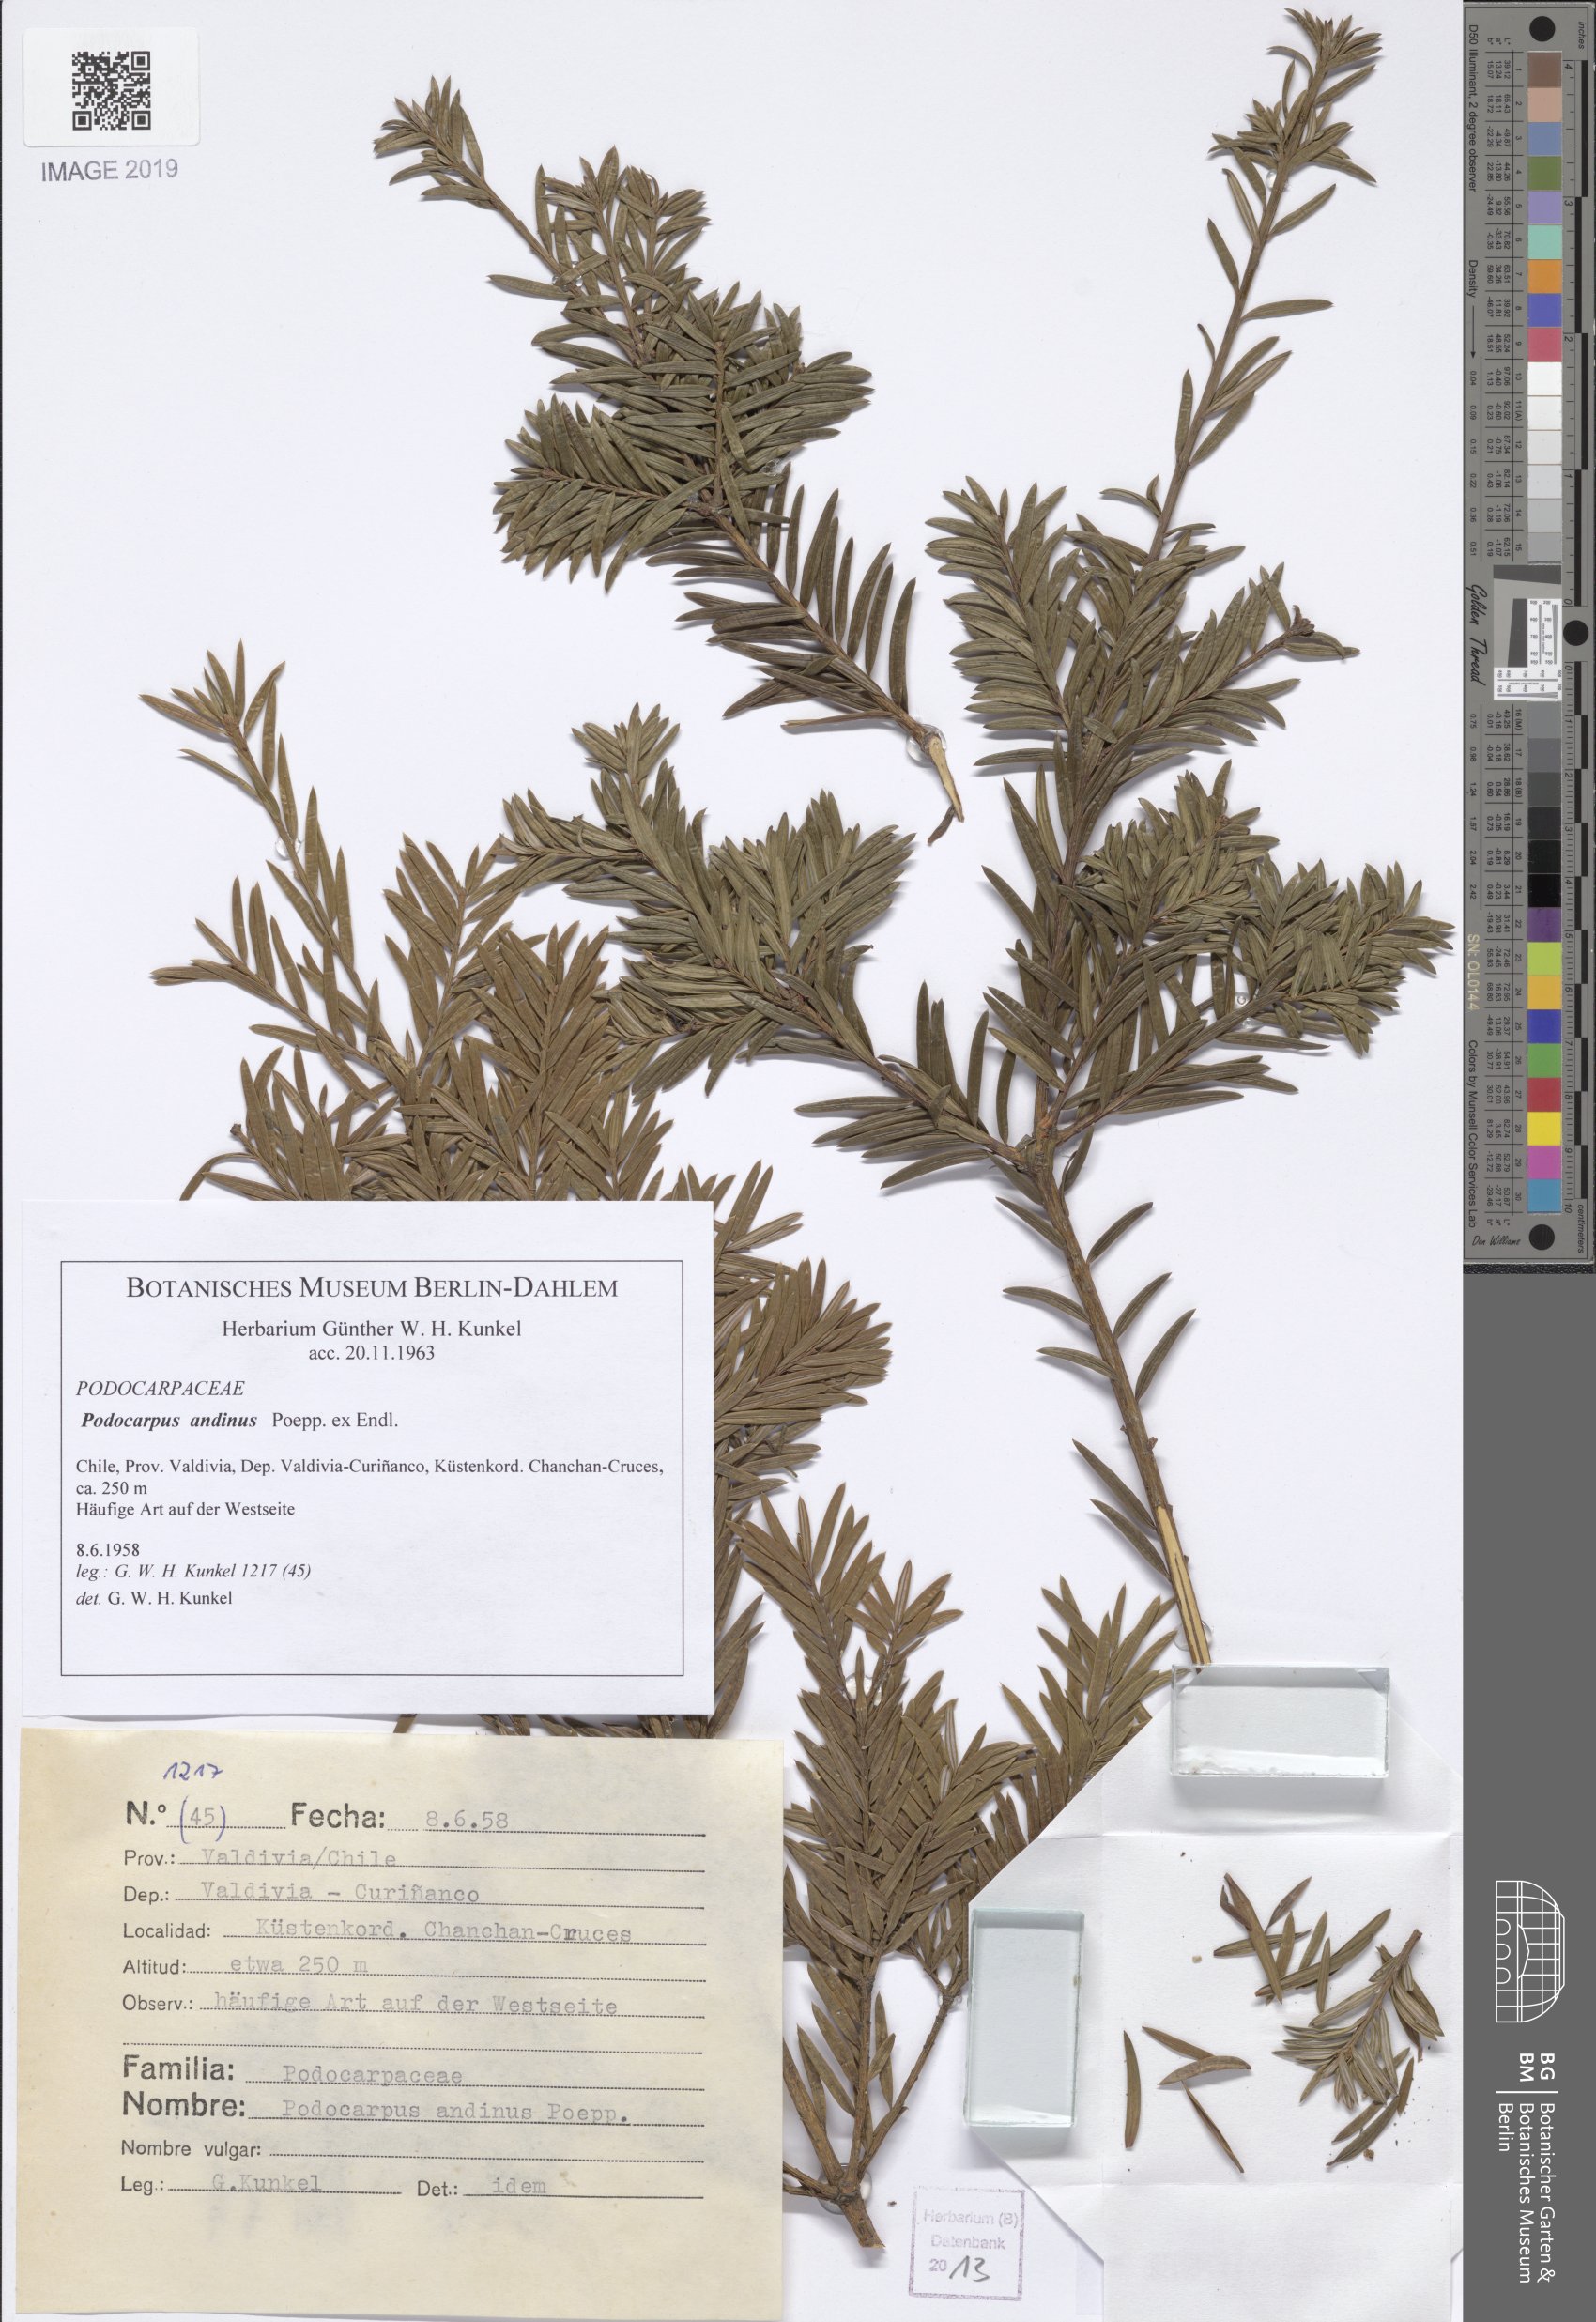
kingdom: Plantae
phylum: Tracheophyta
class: Pinopsida
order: Pinales
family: Podocarpaceae
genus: Prumnopitys
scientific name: Prumnopitys andina
